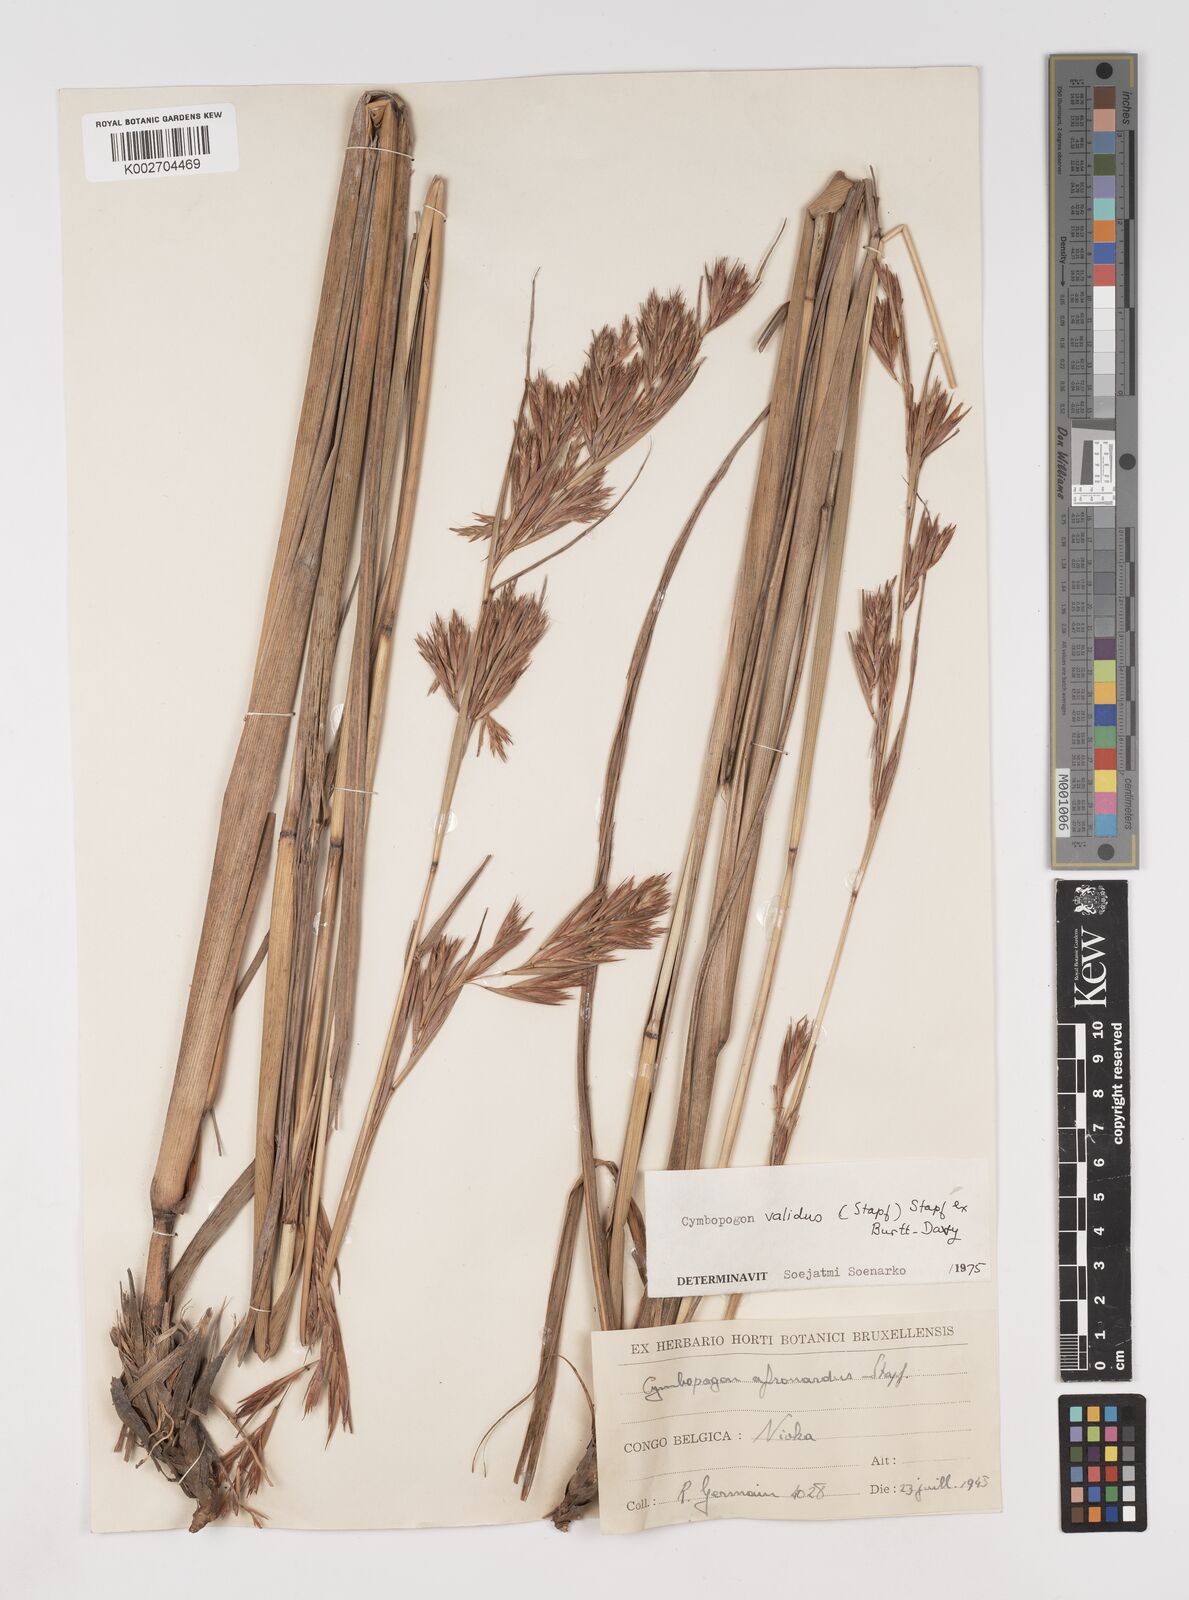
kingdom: Plantae
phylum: Tracheophyta
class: Liliopsida
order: Poales
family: Poaceae
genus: Cymbopogon
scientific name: Cymbopogon nardus
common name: Giant turpentine grass
